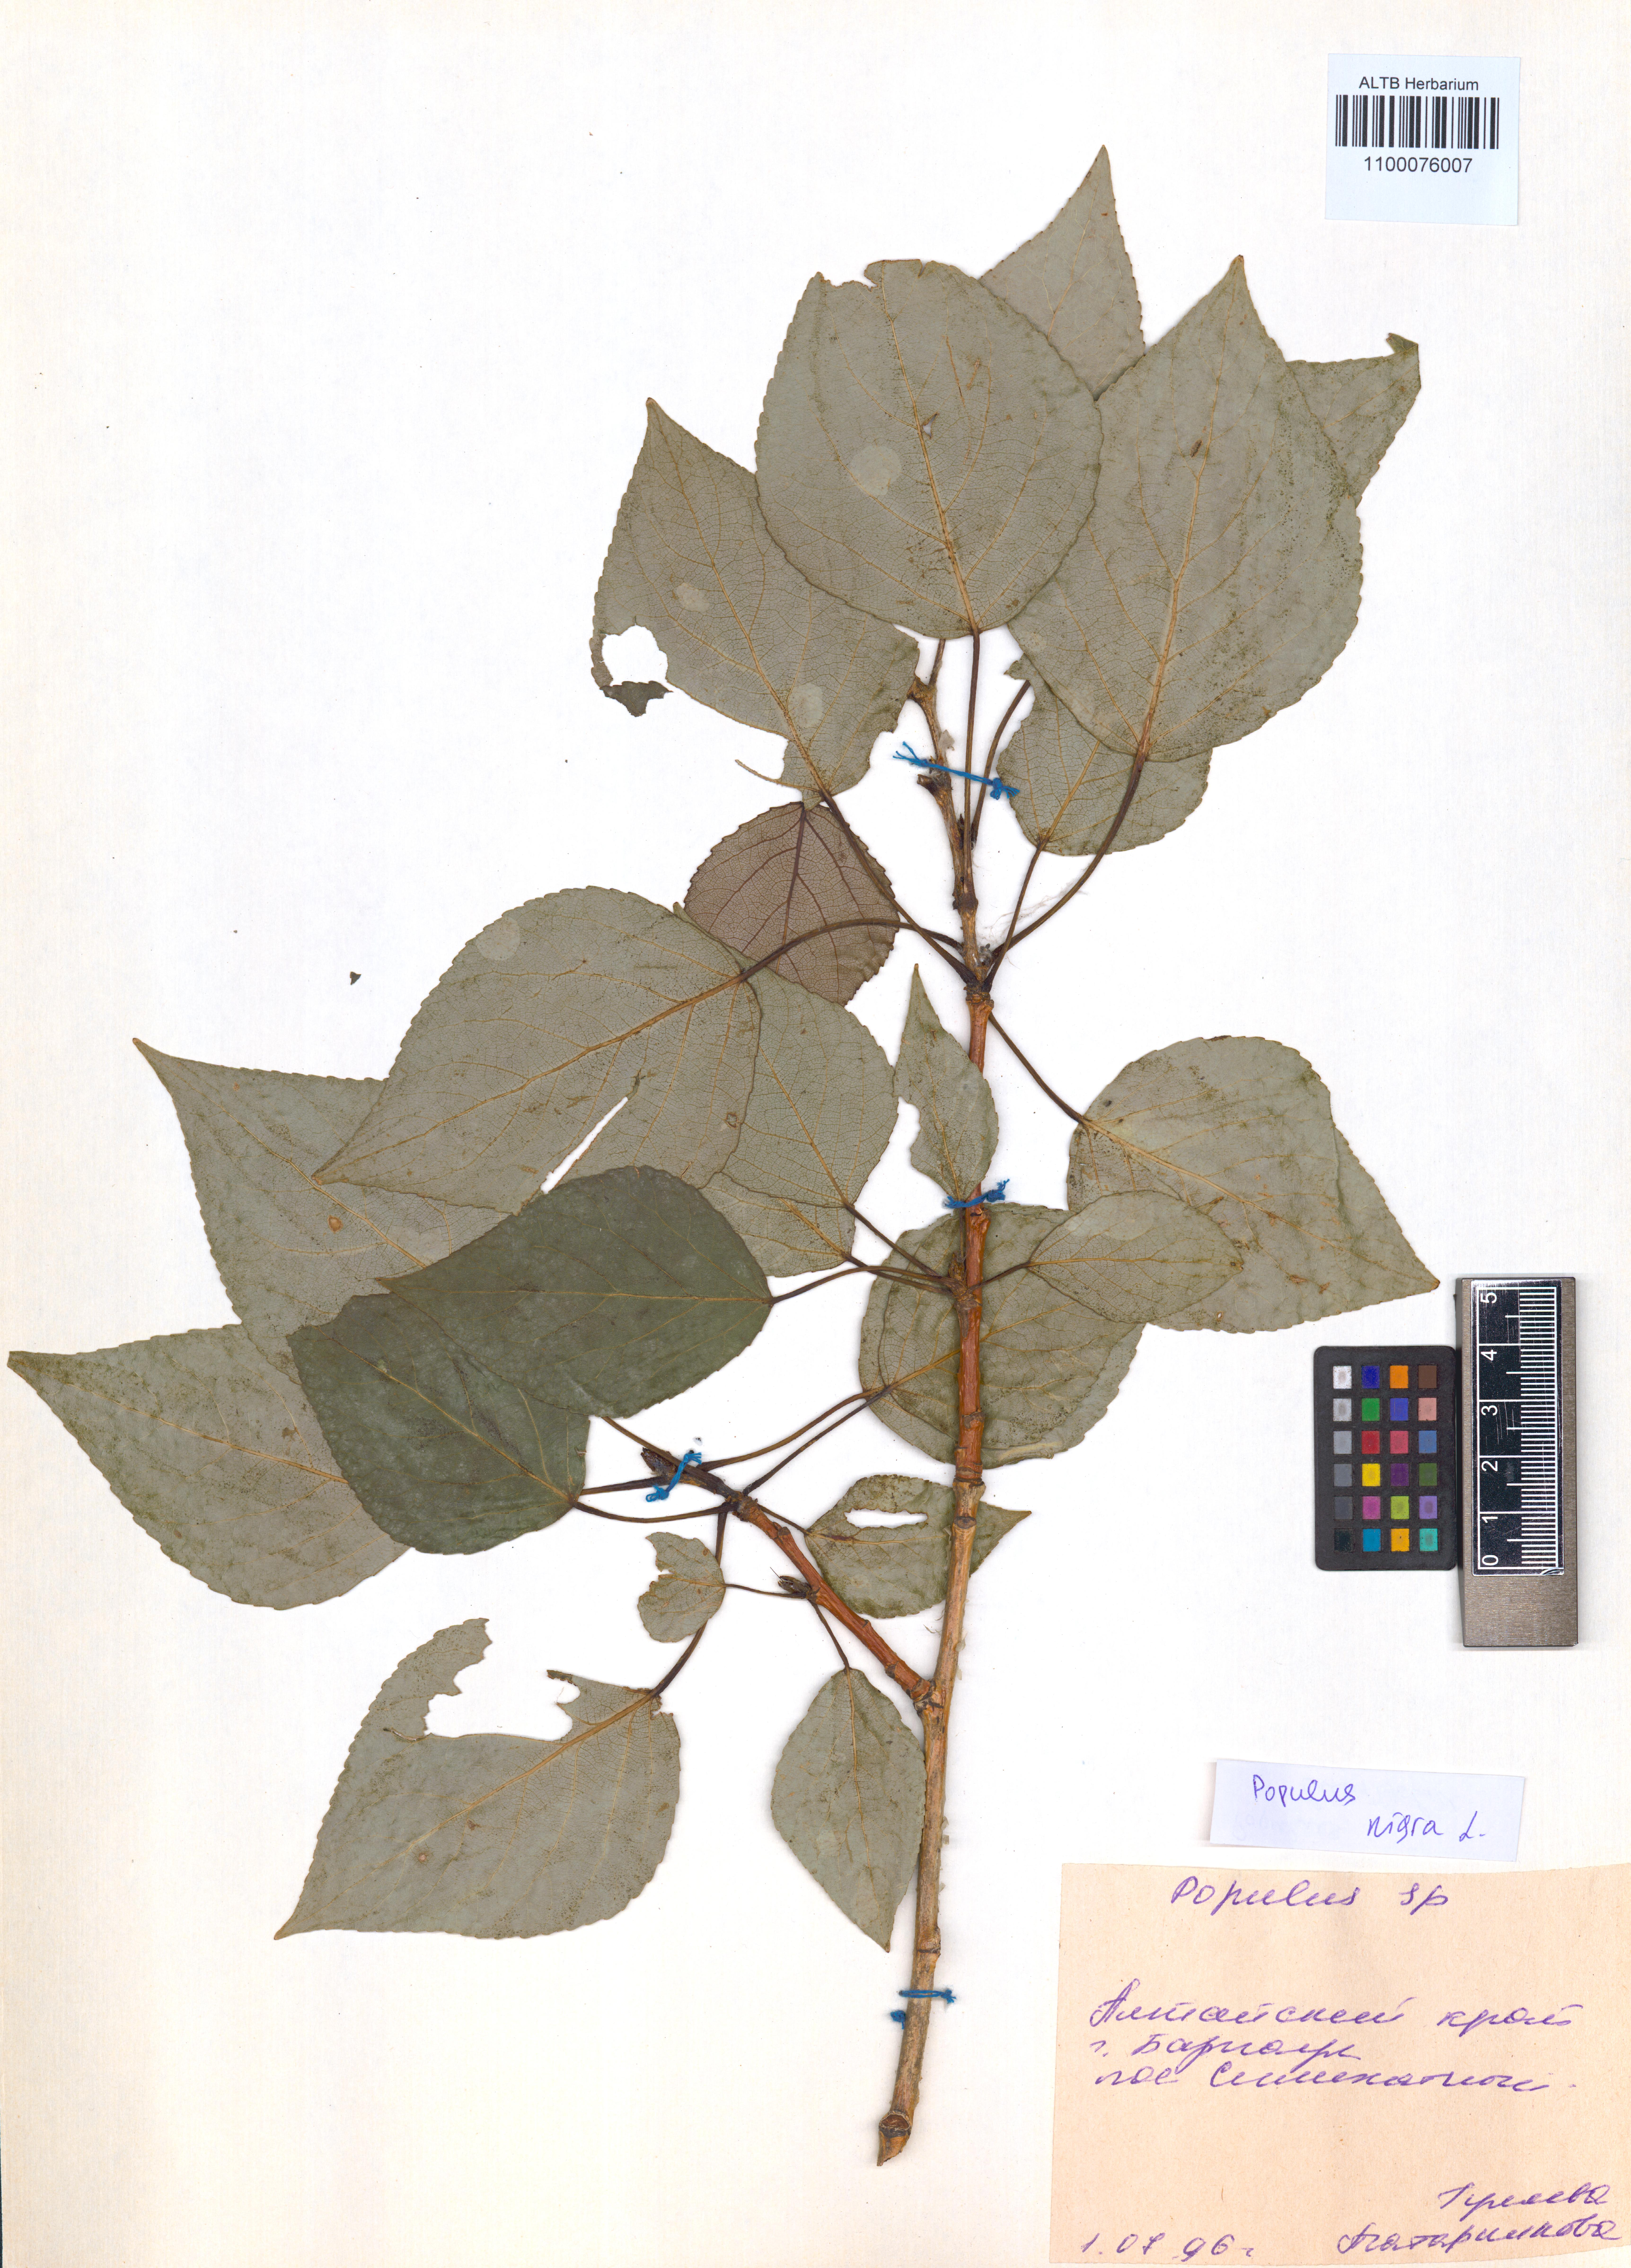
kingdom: Plantae
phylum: Tracheophyta
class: Magnoliopsida
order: Malpighiales
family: Salicaceae
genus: Populus
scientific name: Populus nigra
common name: Black poplar
